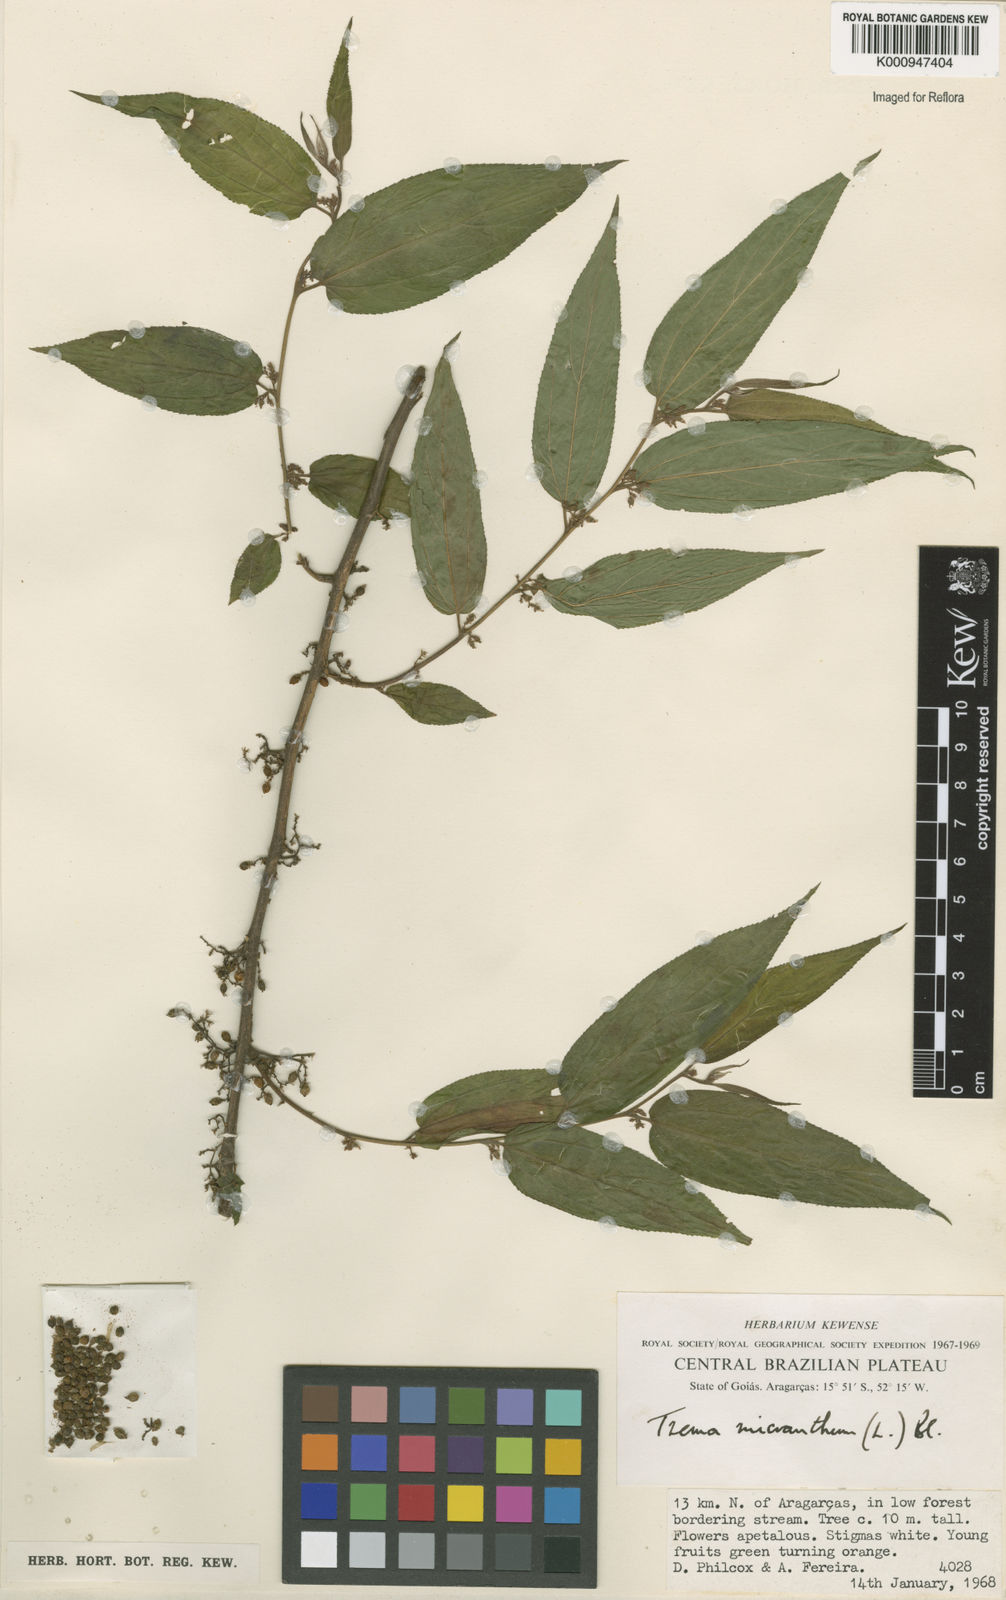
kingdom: Plantae
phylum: Tracheophyta
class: Magnoliopsida
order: Rosales
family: Cannabaceae
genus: Trema
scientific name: Trema micranthum
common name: Jamaican nettletree
